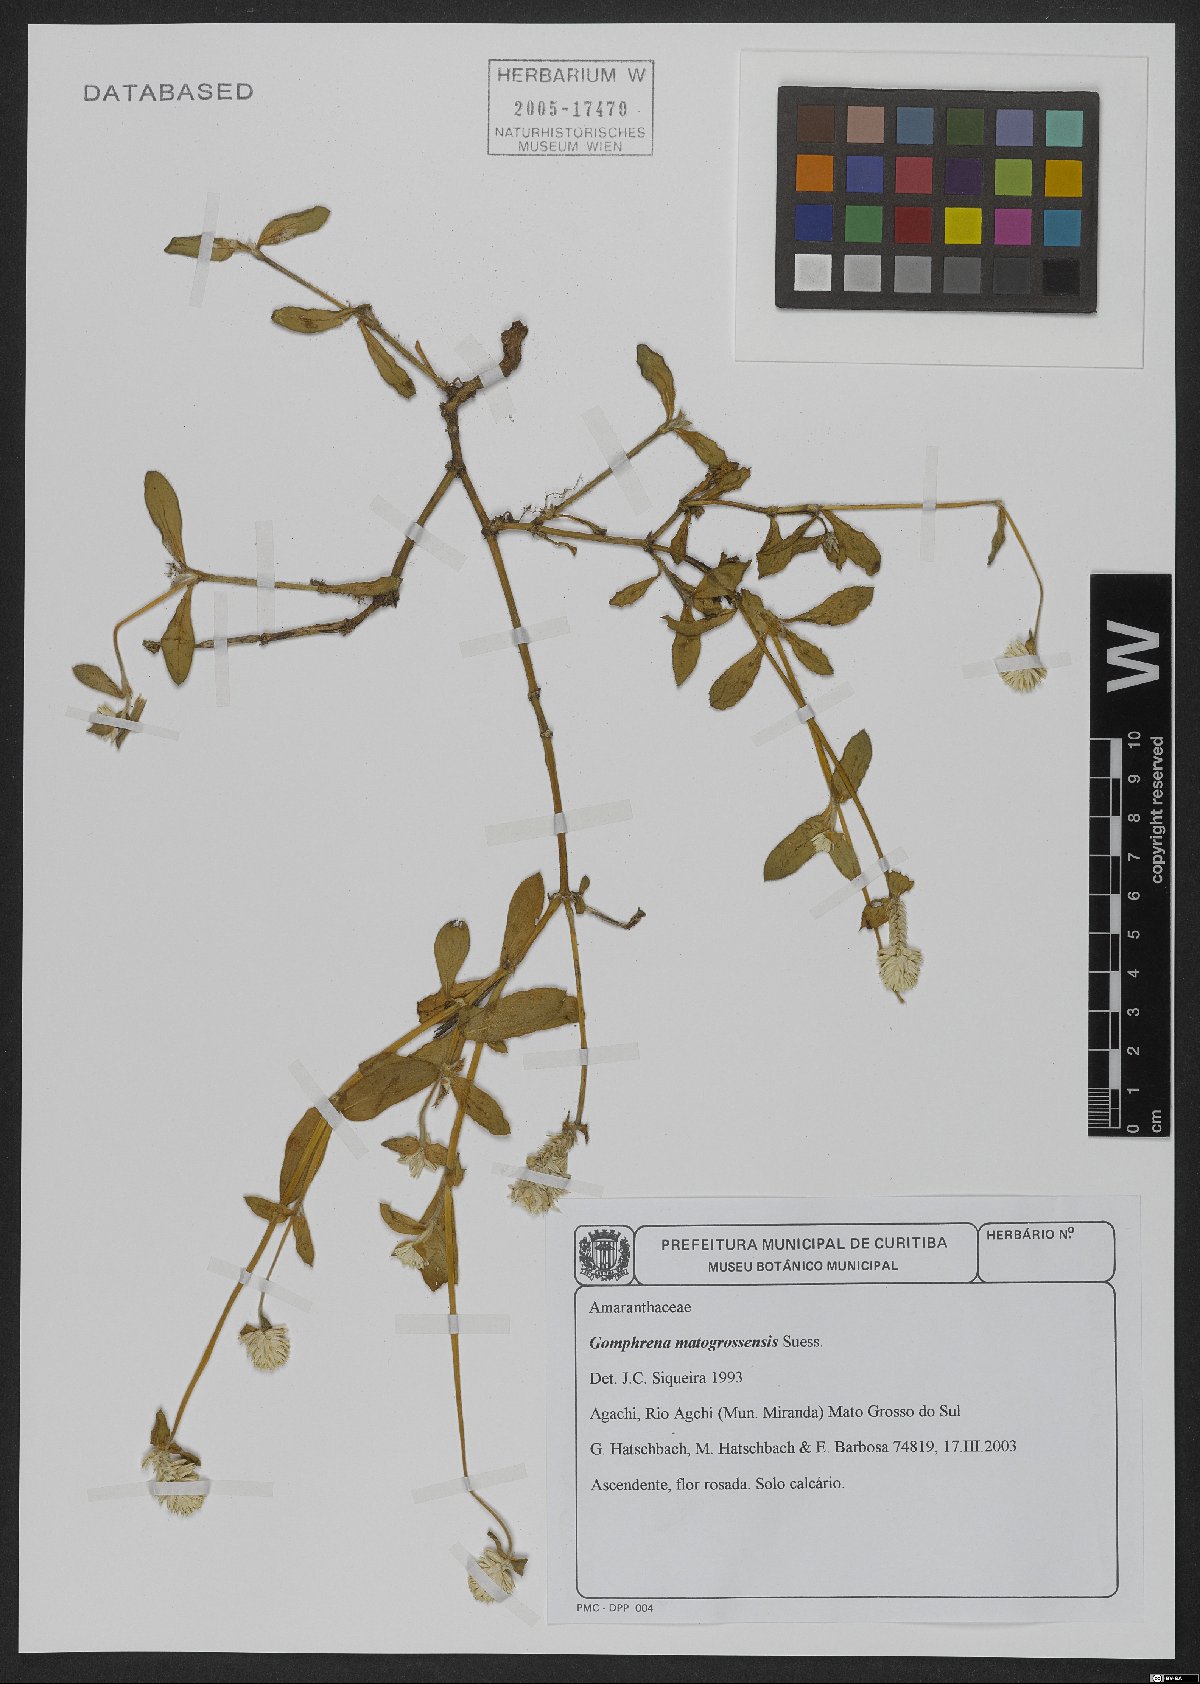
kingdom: Plantae
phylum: Tracheophyta
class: Magnoliopsida
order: Caryophyllales
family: Amaranthaceae
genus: Gomphrena
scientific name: Gomphrena matogrossensis
